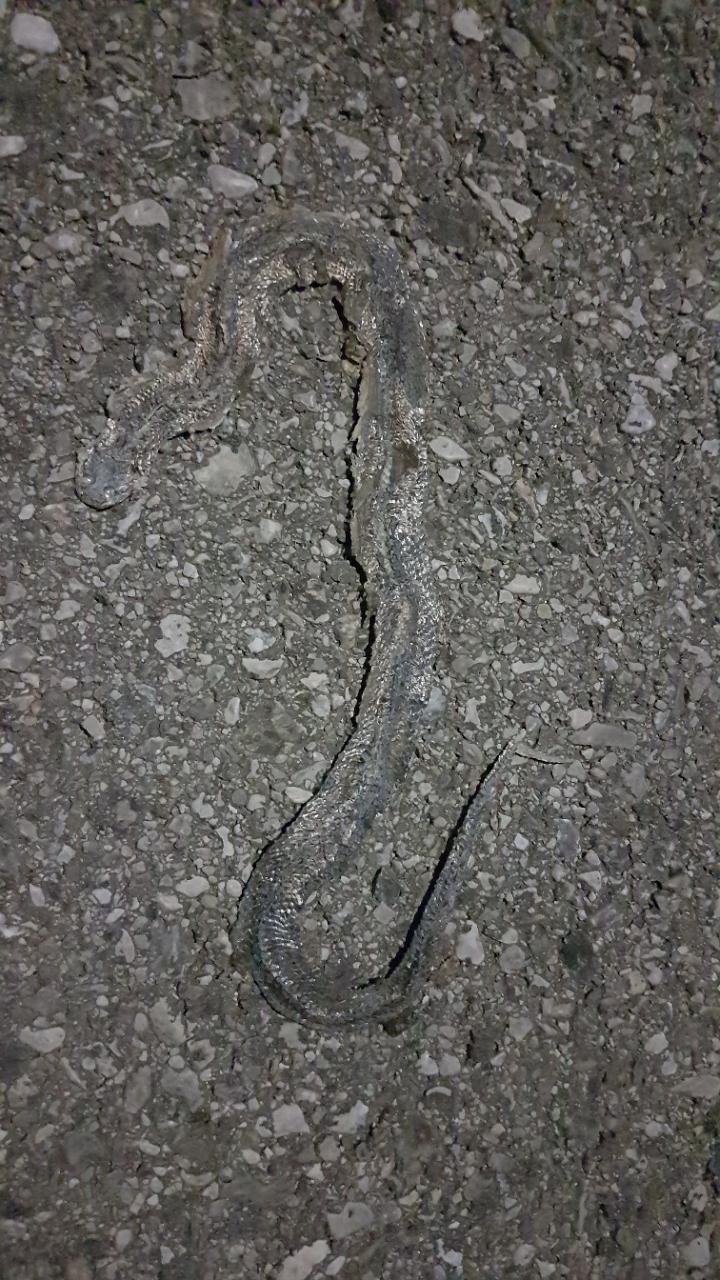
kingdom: Animalia
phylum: Chordata
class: Squamata
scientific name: Squamata
